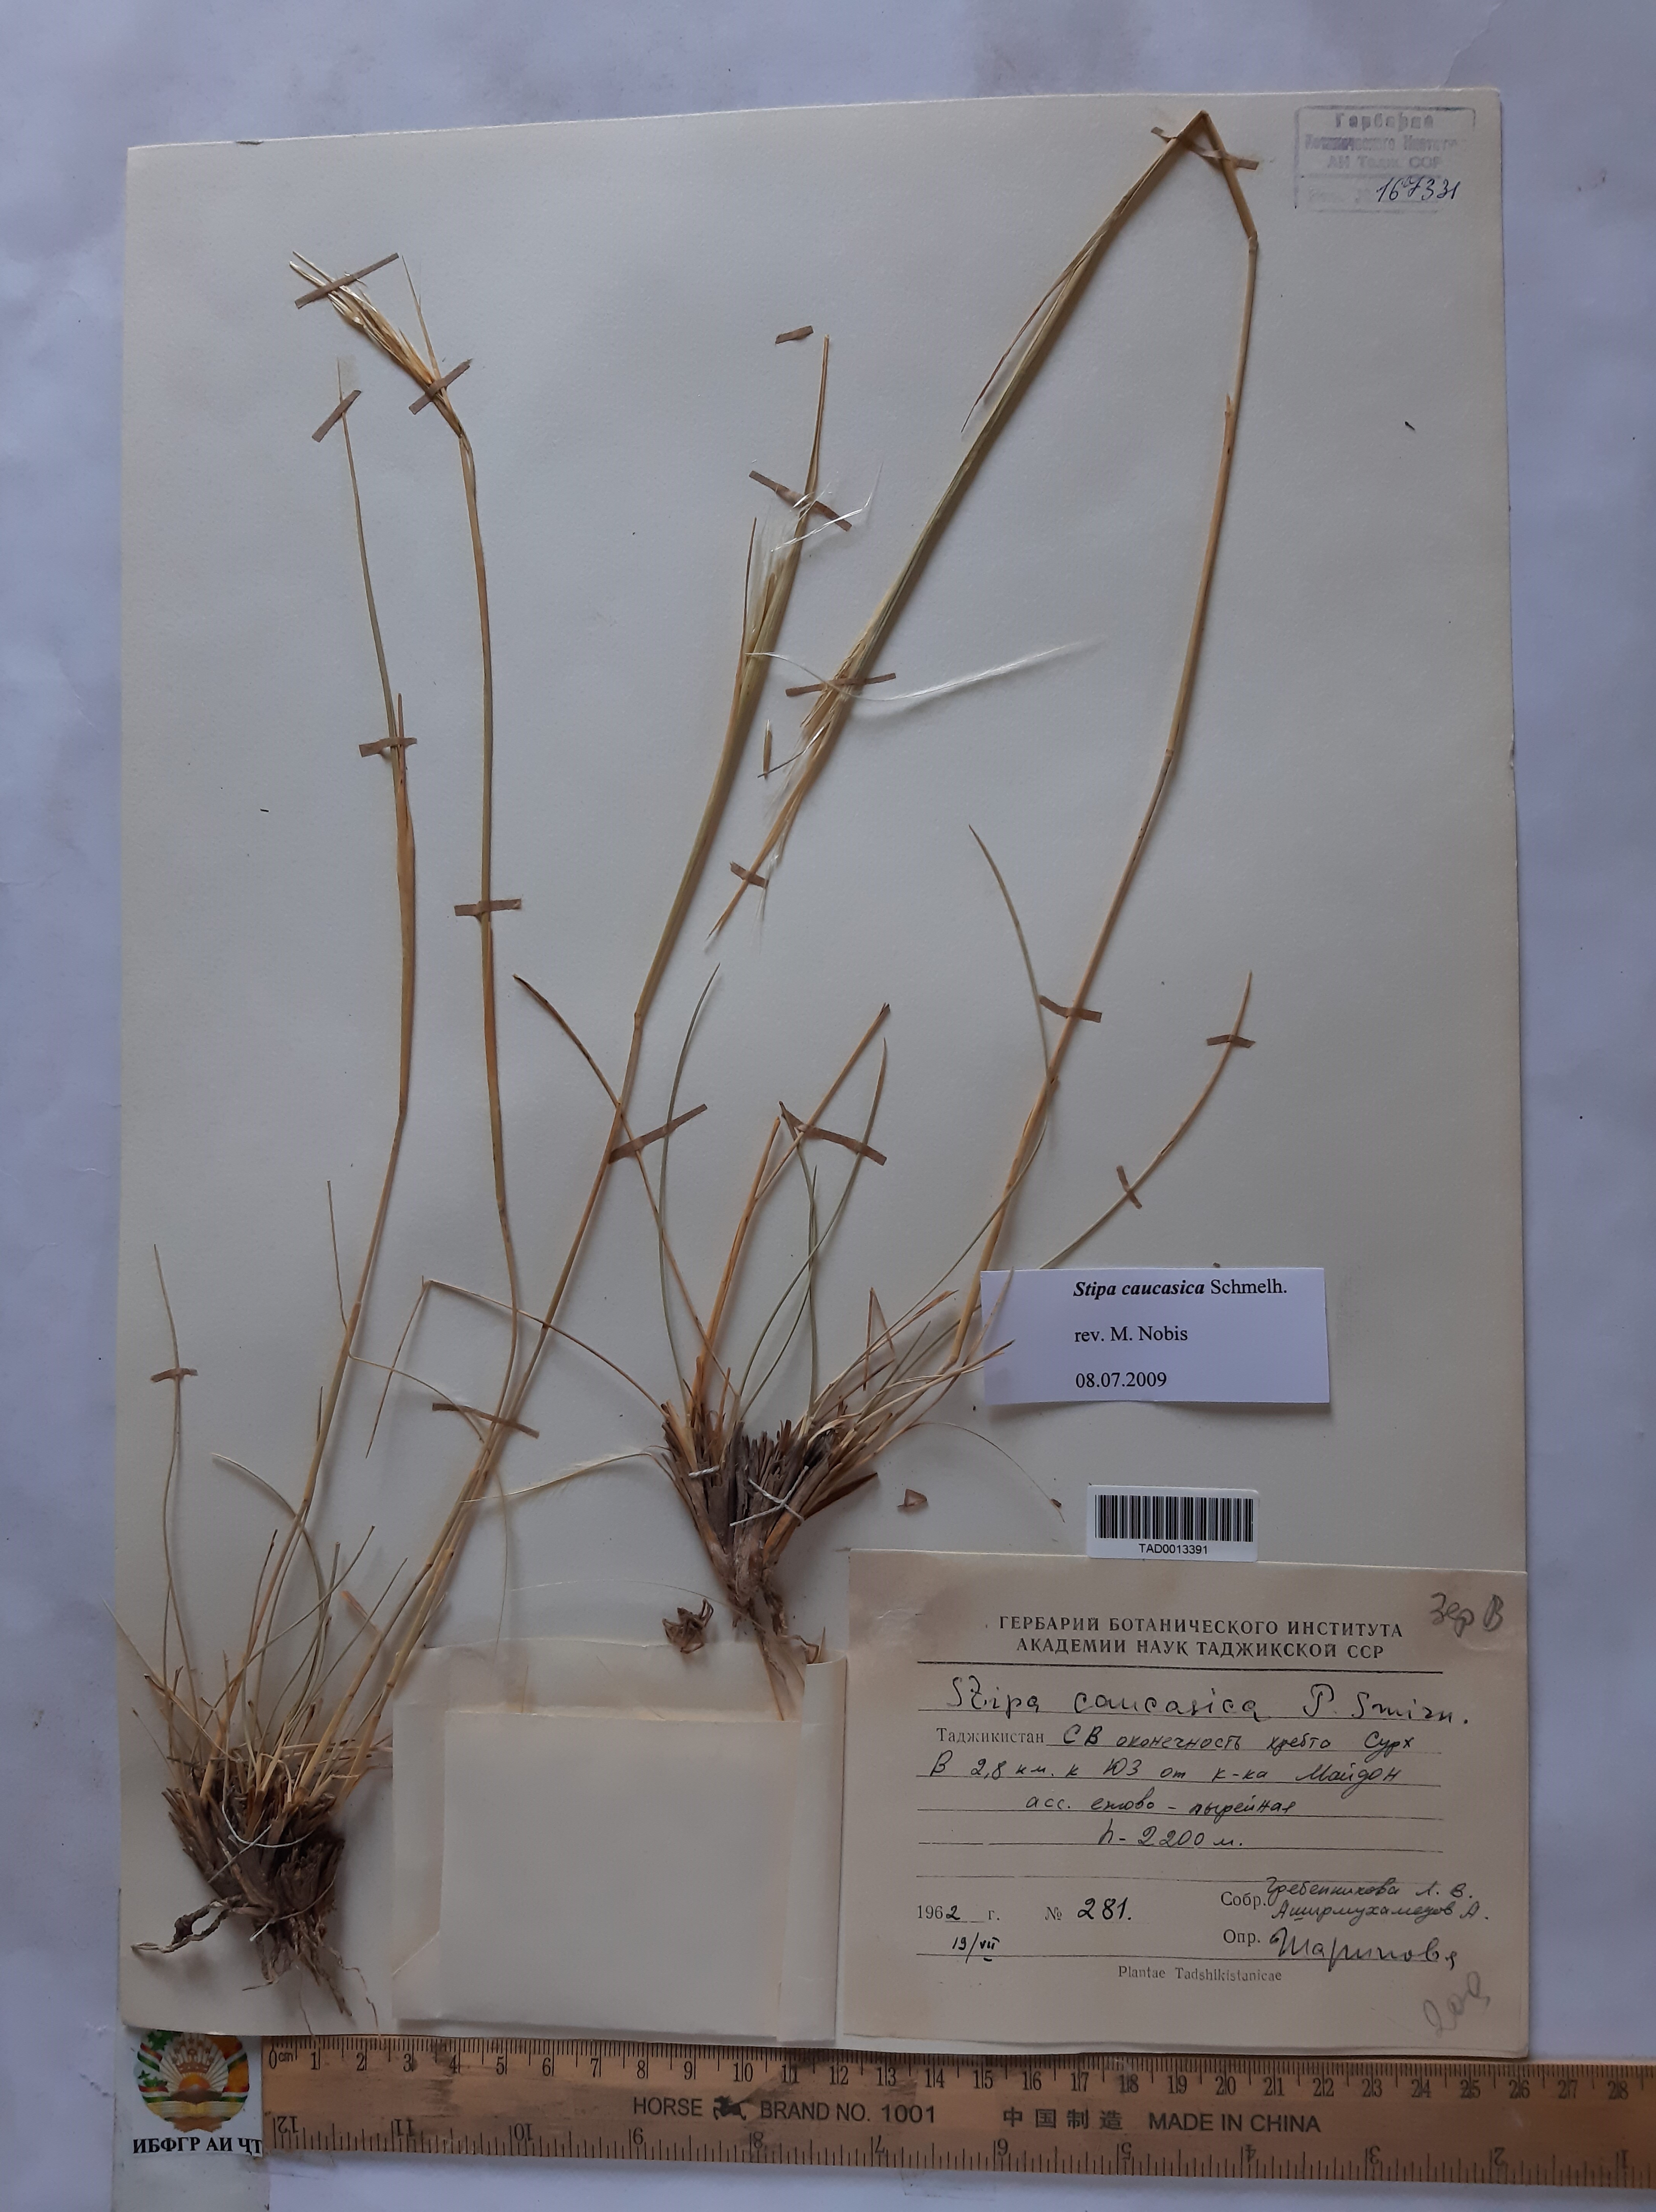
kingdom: Plantae
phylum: Tracheophyta
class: Liliopsida
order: Poales
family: Poaceae
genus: Stipa
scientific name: Stipa caucasica
